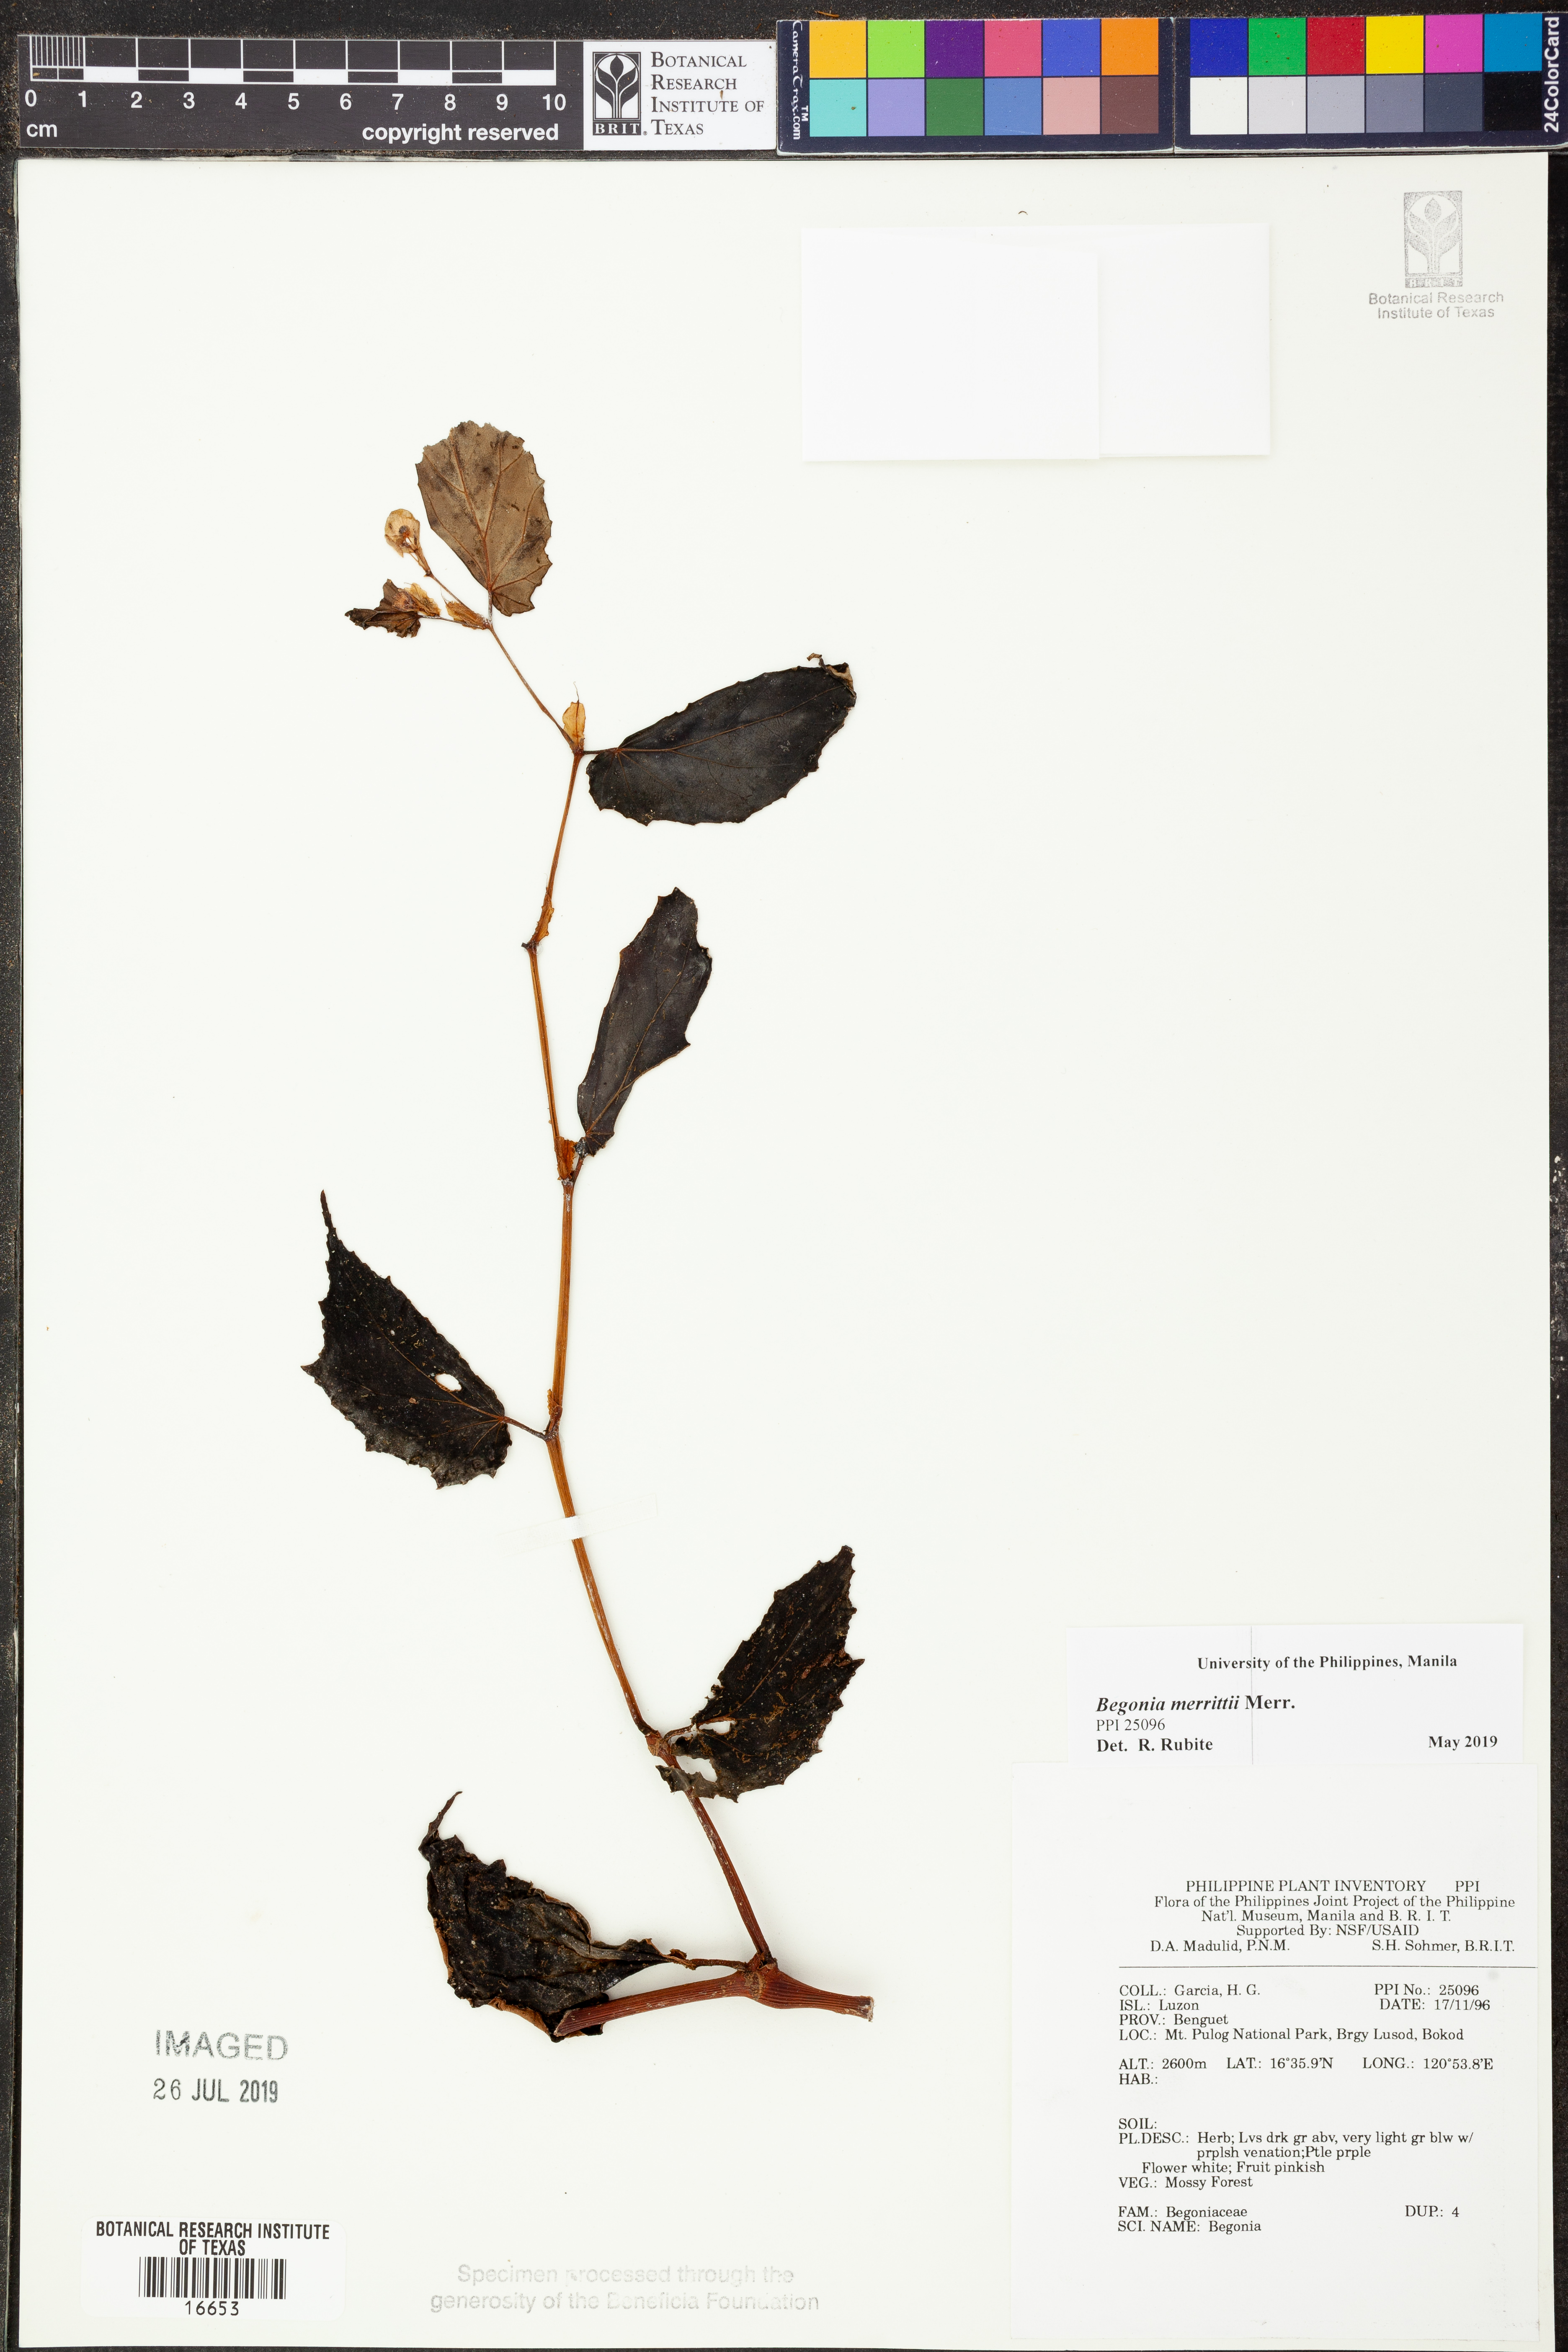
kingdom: Plantae
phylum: Tracheophyta
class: Magnoliopsida
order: Cucurbitales
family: Begoniaceae
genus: Begonia
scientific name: Begonia merrittii
